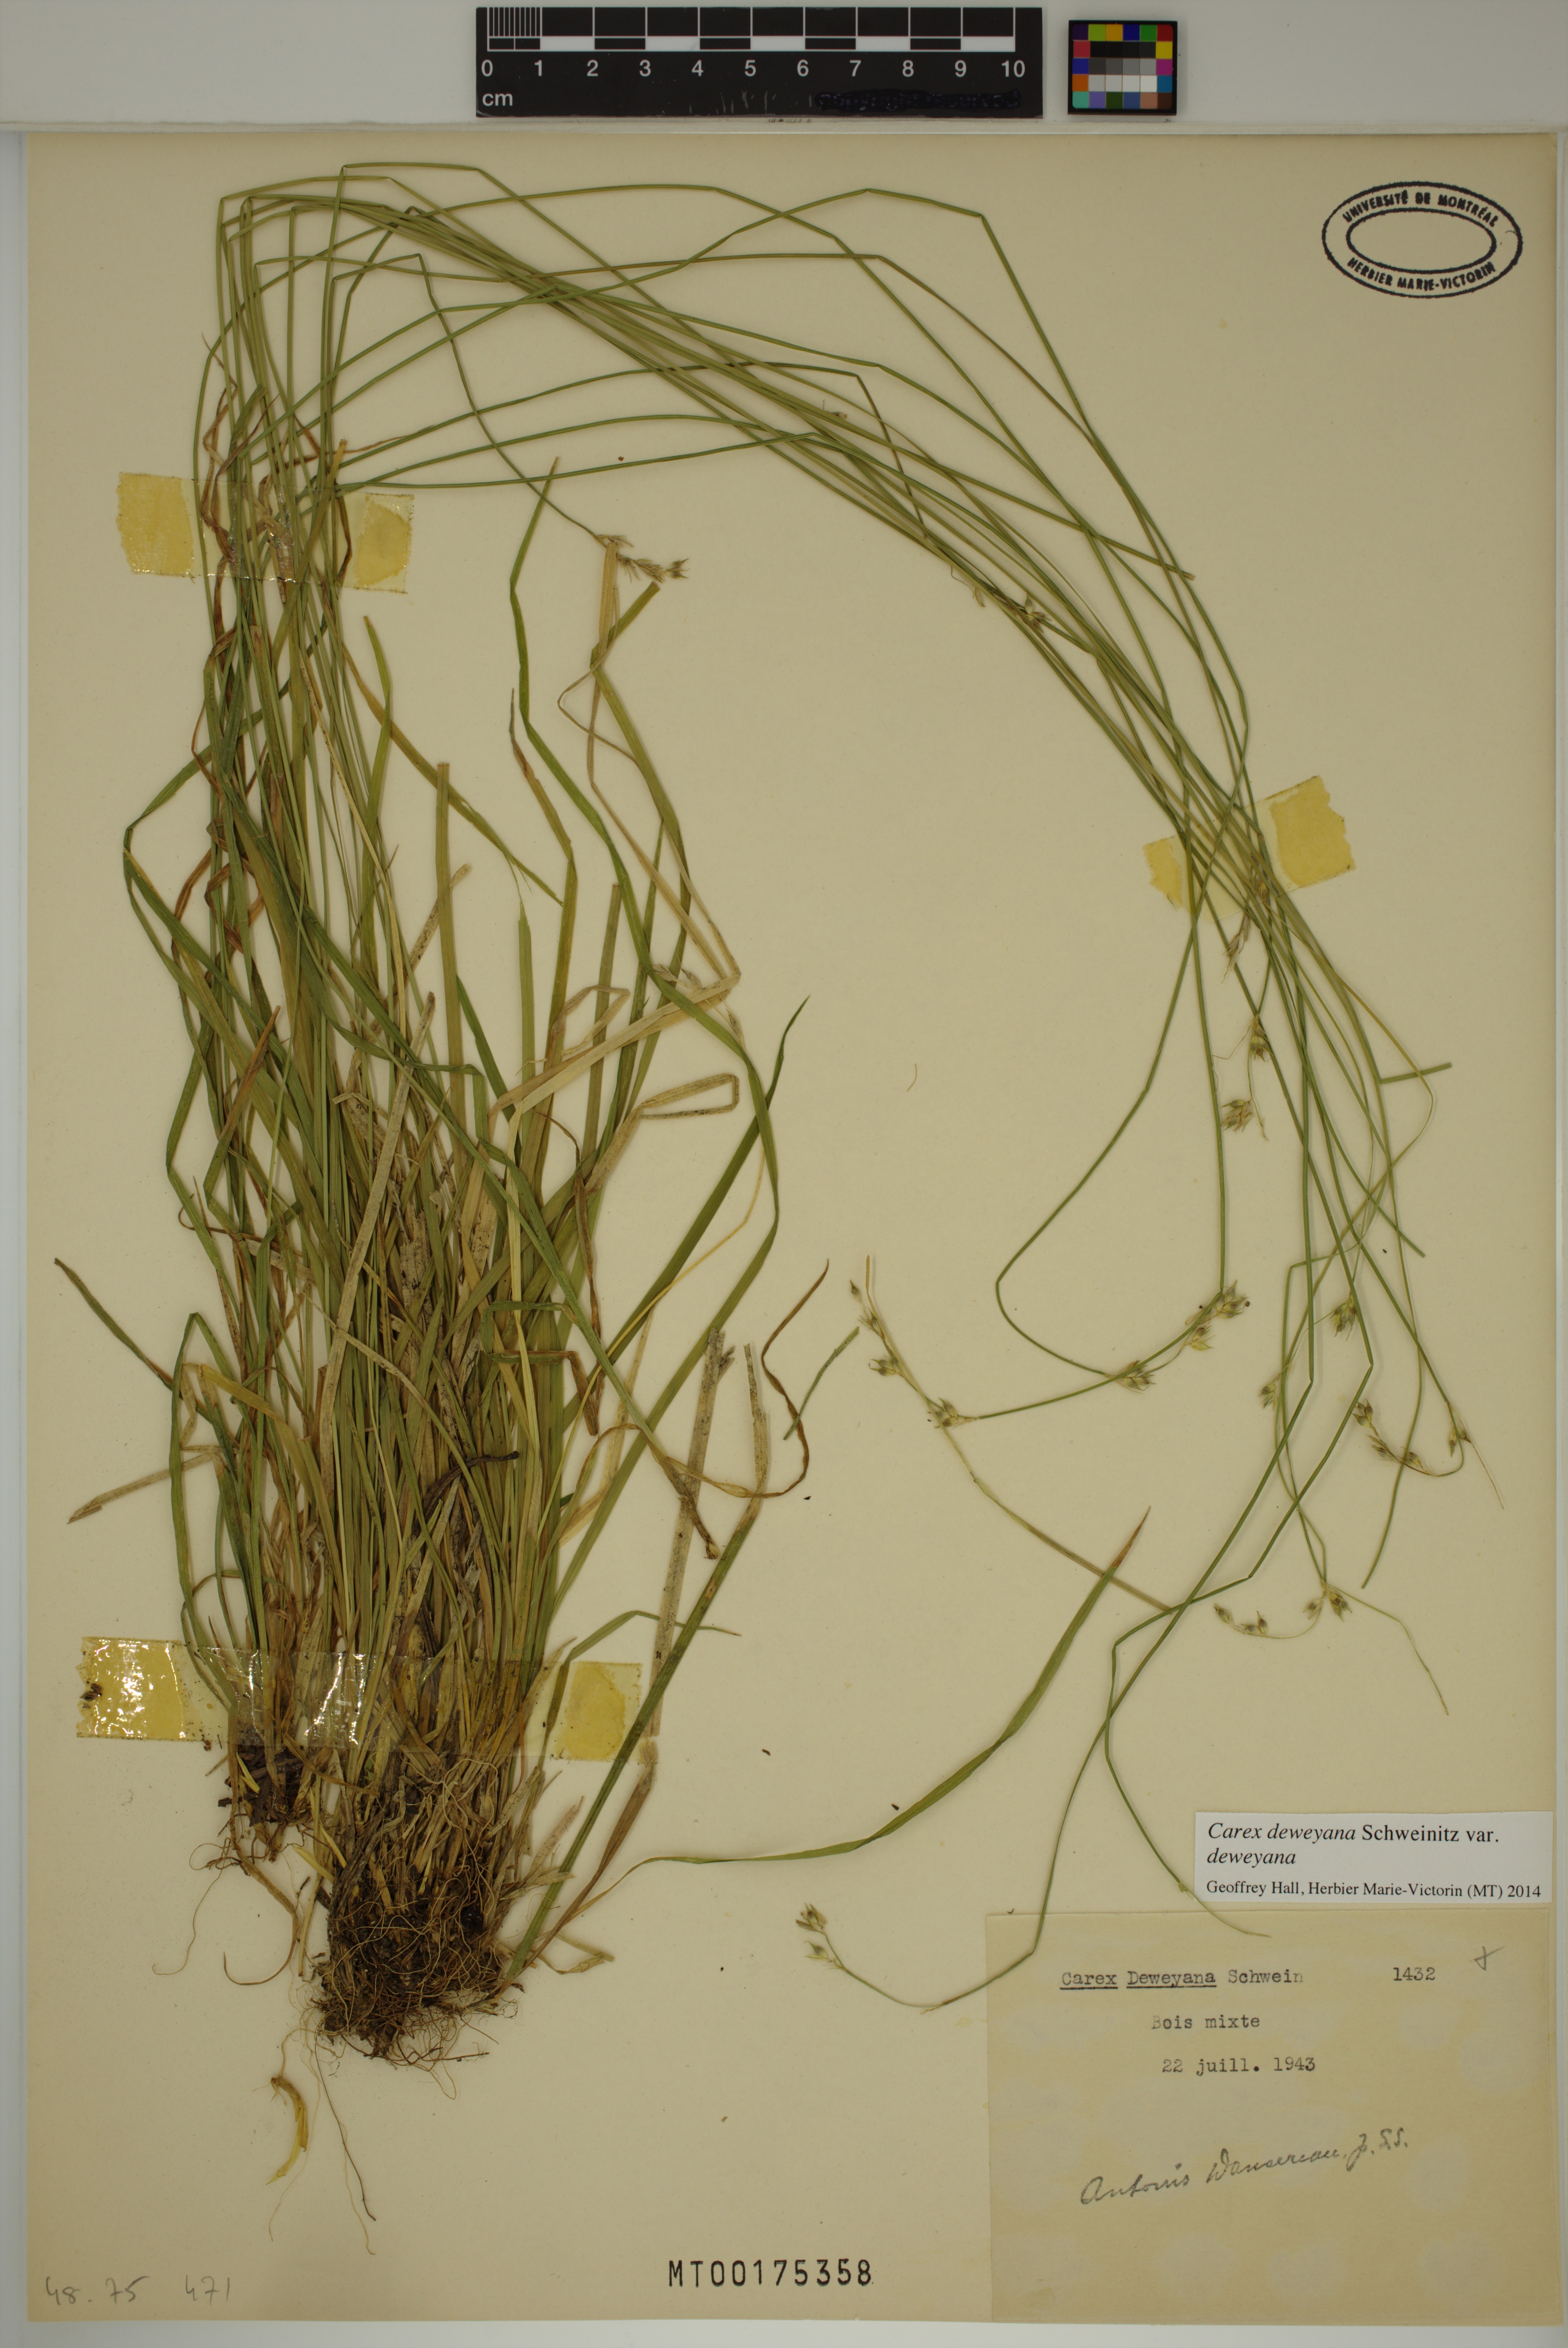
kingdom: Plantae
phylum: Tracheophyta
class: Liliopsida
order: Poales
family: Cyperaceae
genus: Carex
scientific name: Carex deweyana
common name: Dewey's sedge
